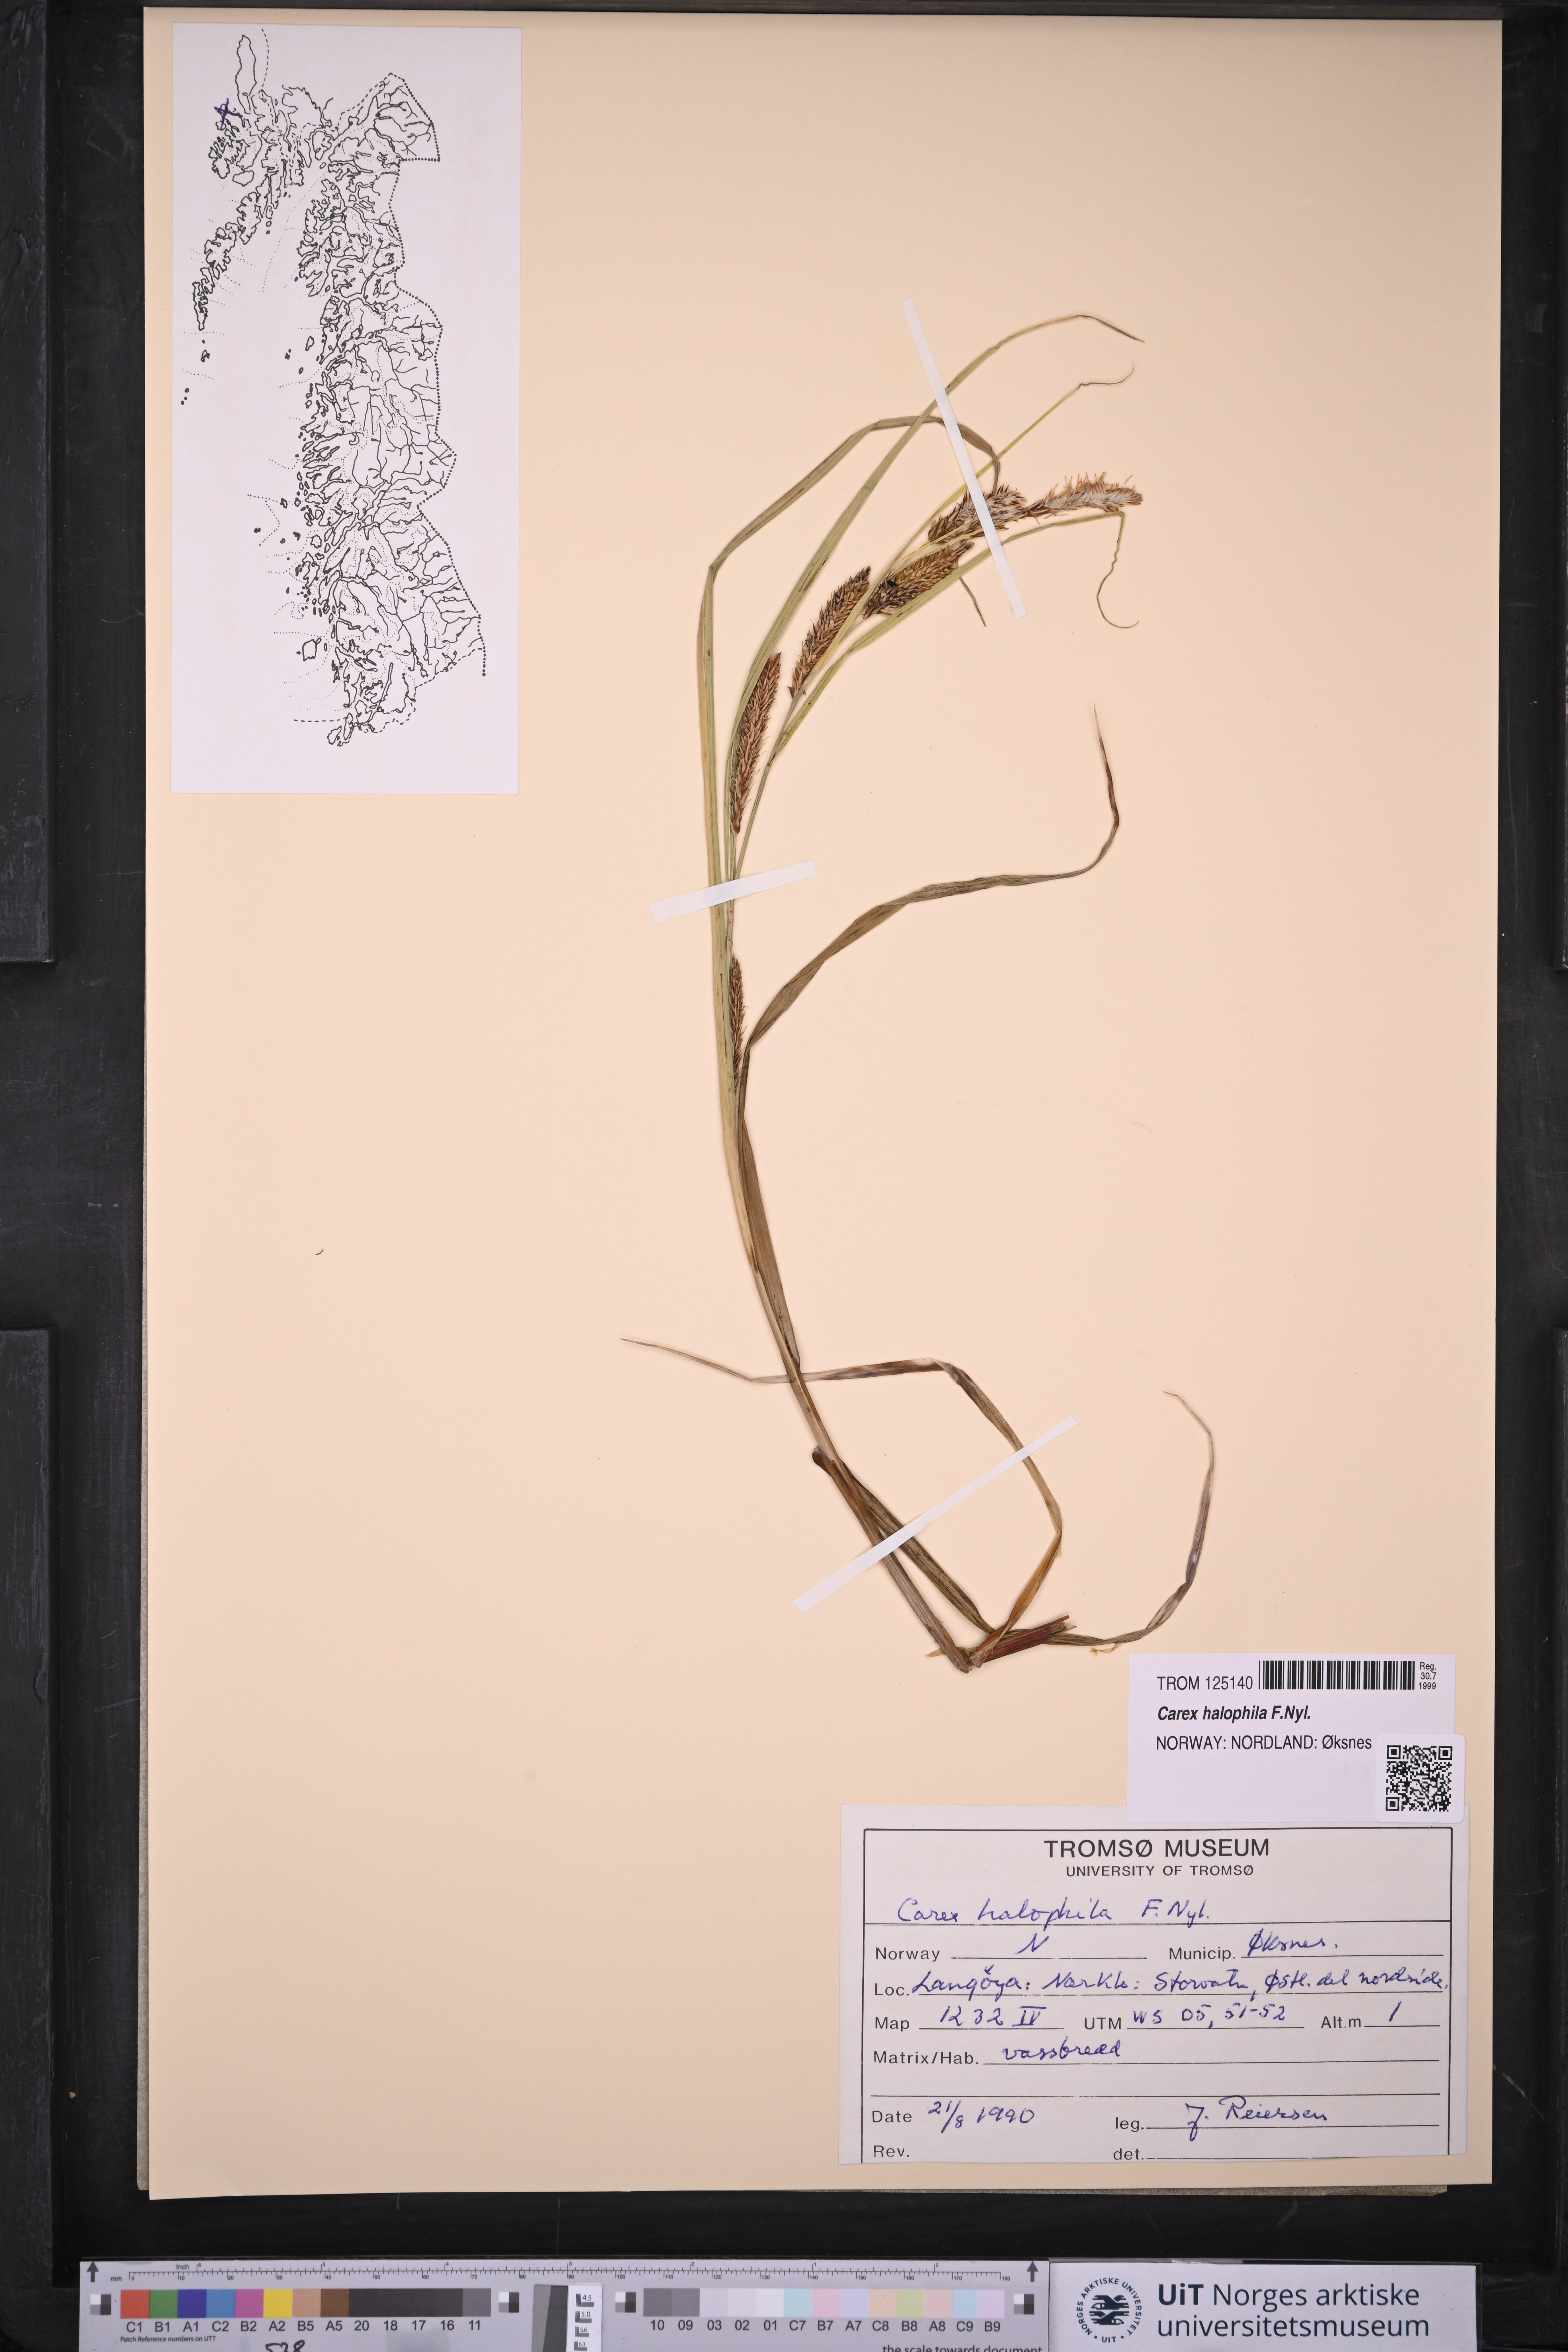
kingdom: Plantae
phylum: Tracheophyta
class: Liliopsida
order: Poales
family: Cyperaceae
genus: Carex
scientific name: Carex halophila
